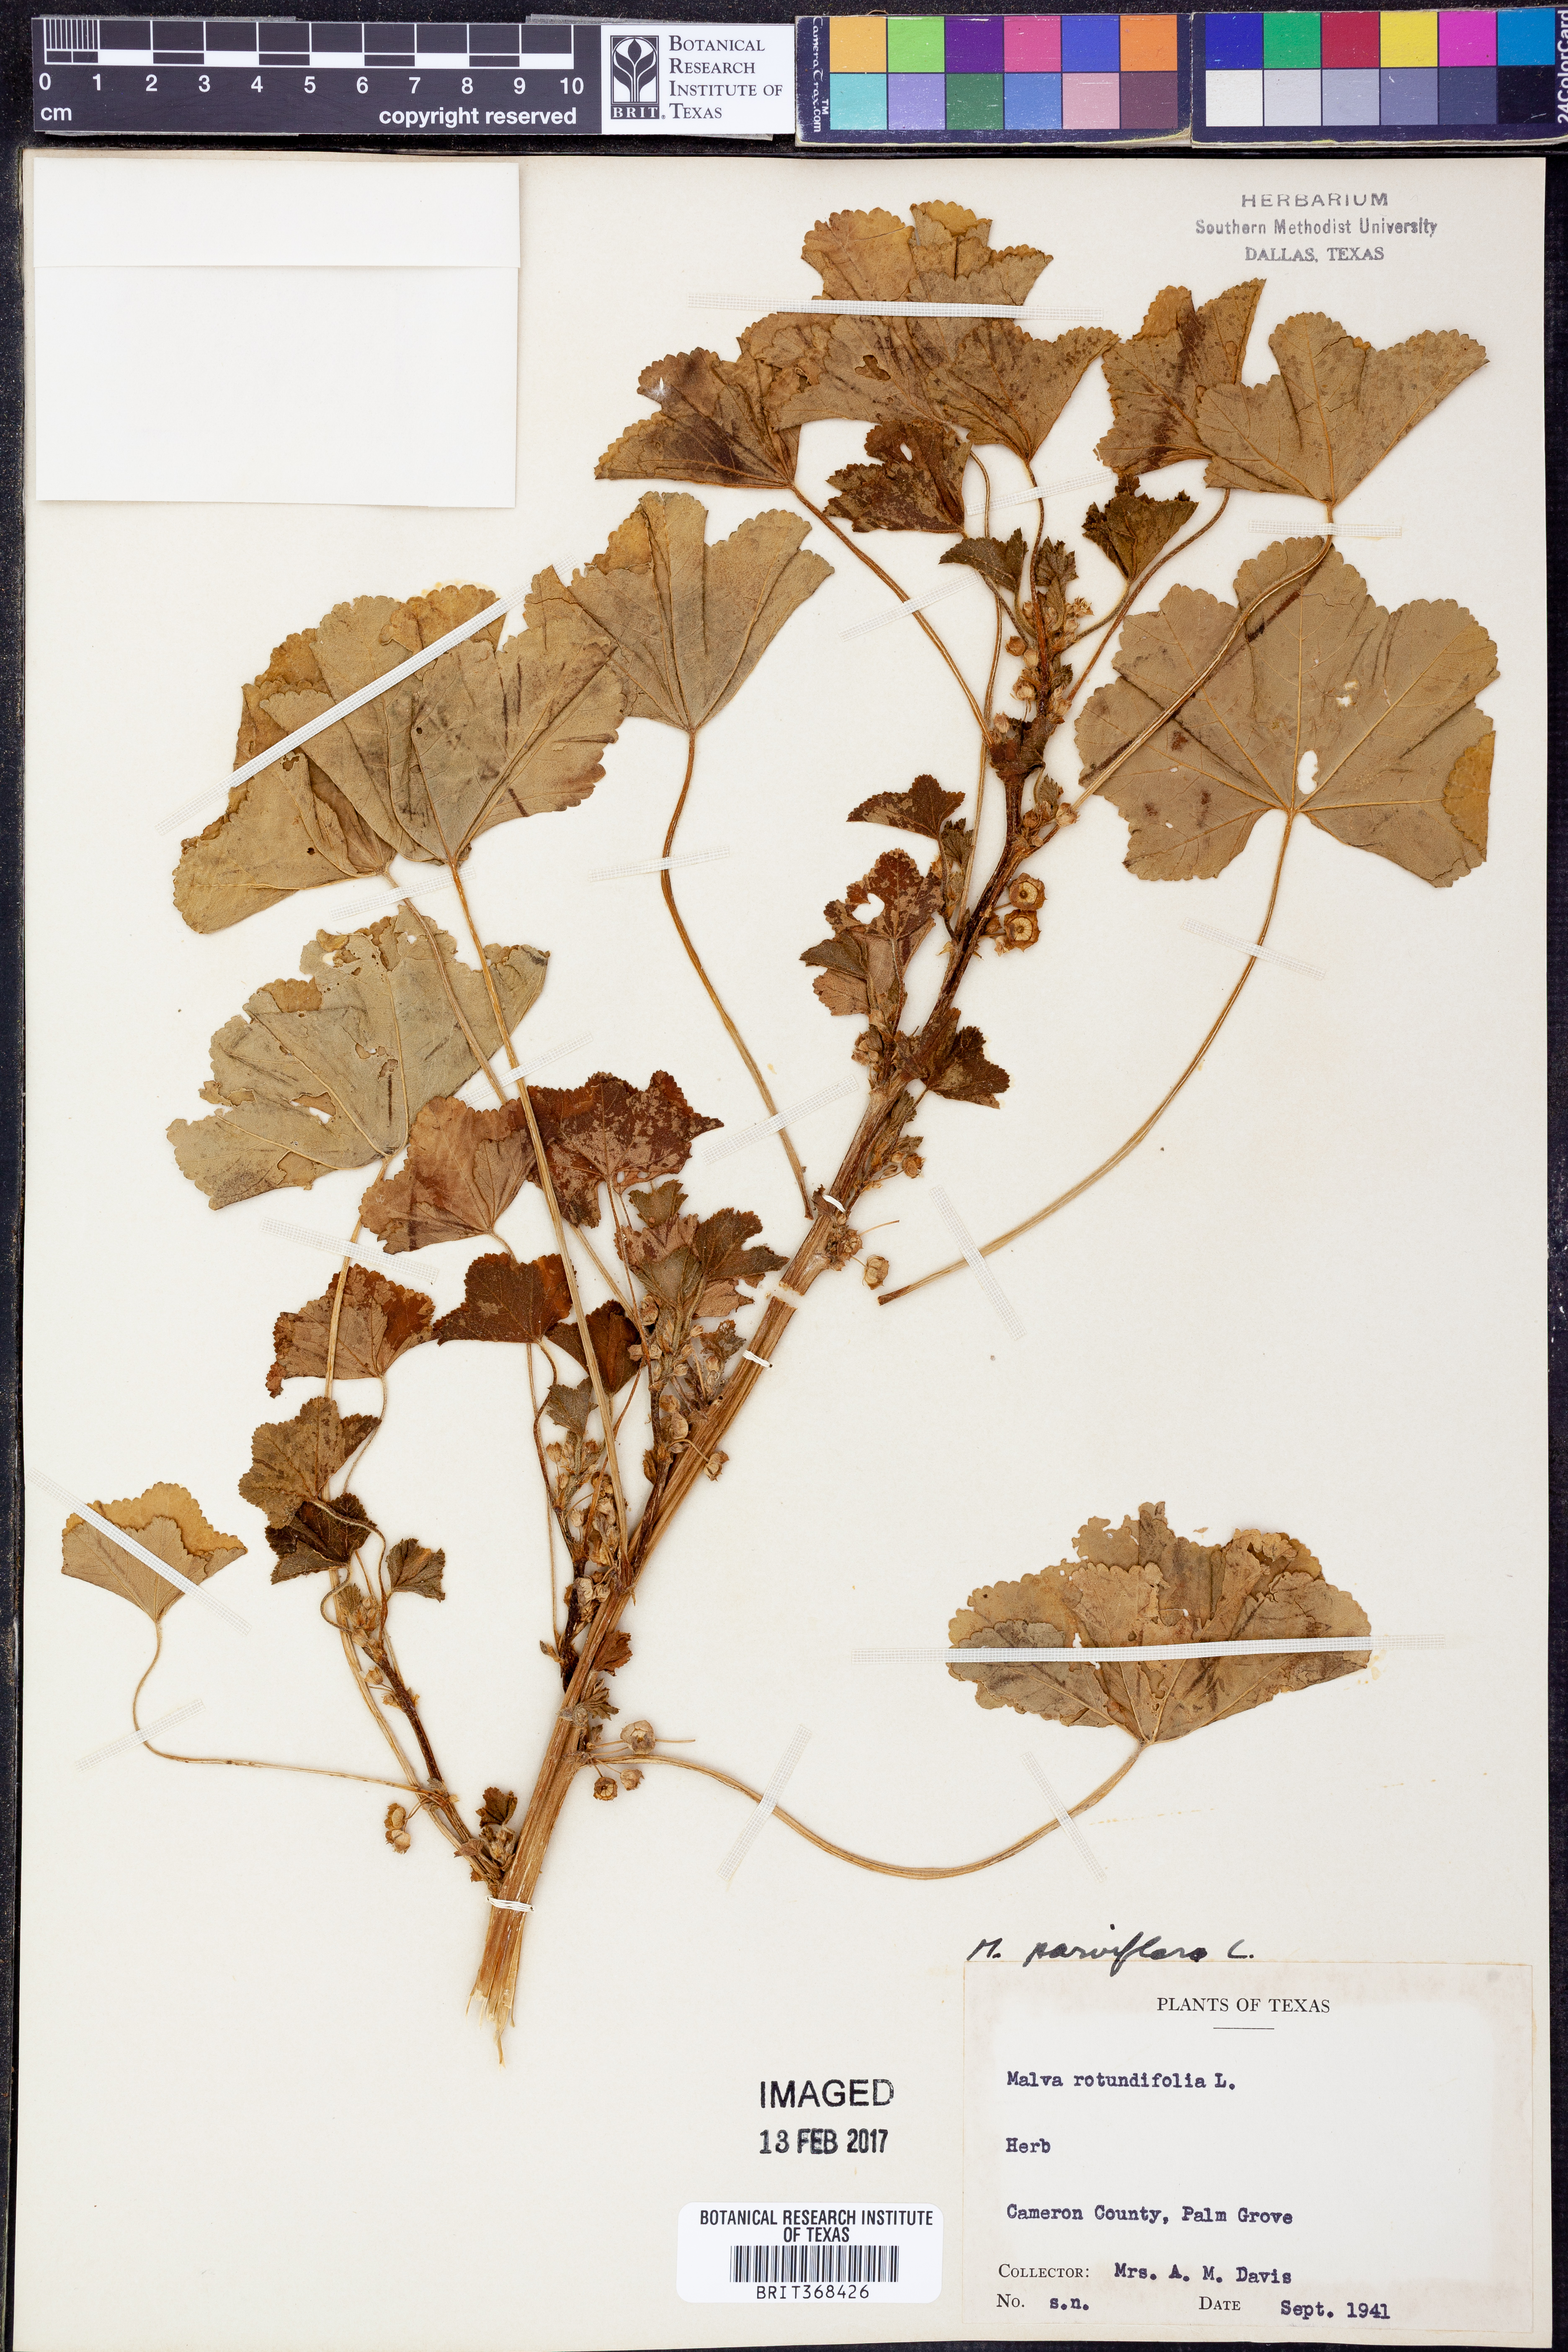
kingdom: Plantae
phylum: Tracheophyta
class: Magnoliopsida
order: Malvales
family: Malvaceae
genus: Malva
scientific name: Malva parviflora
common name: Least mallow
